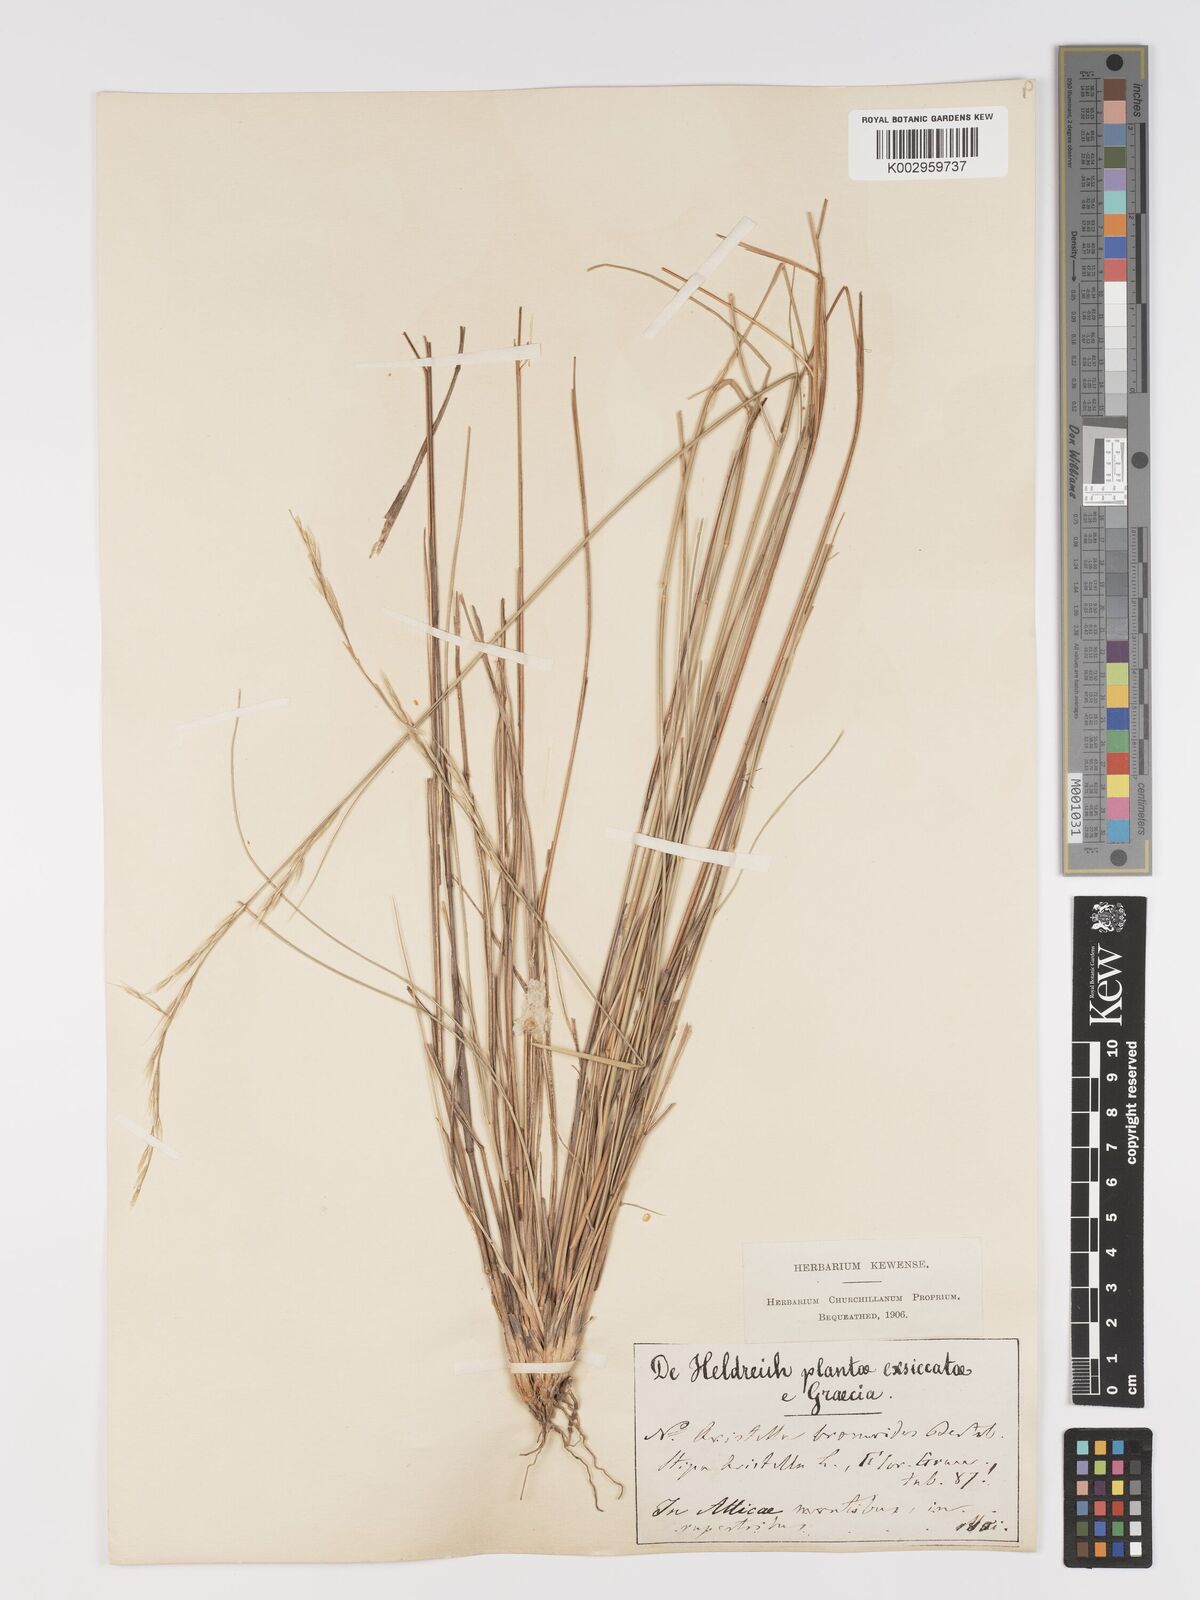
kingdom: Plantae
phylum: Tracheophyta
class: Liliopsida
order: Poales
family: Poaceae
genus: Achnatherum
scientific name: Achnatherum bromoides
